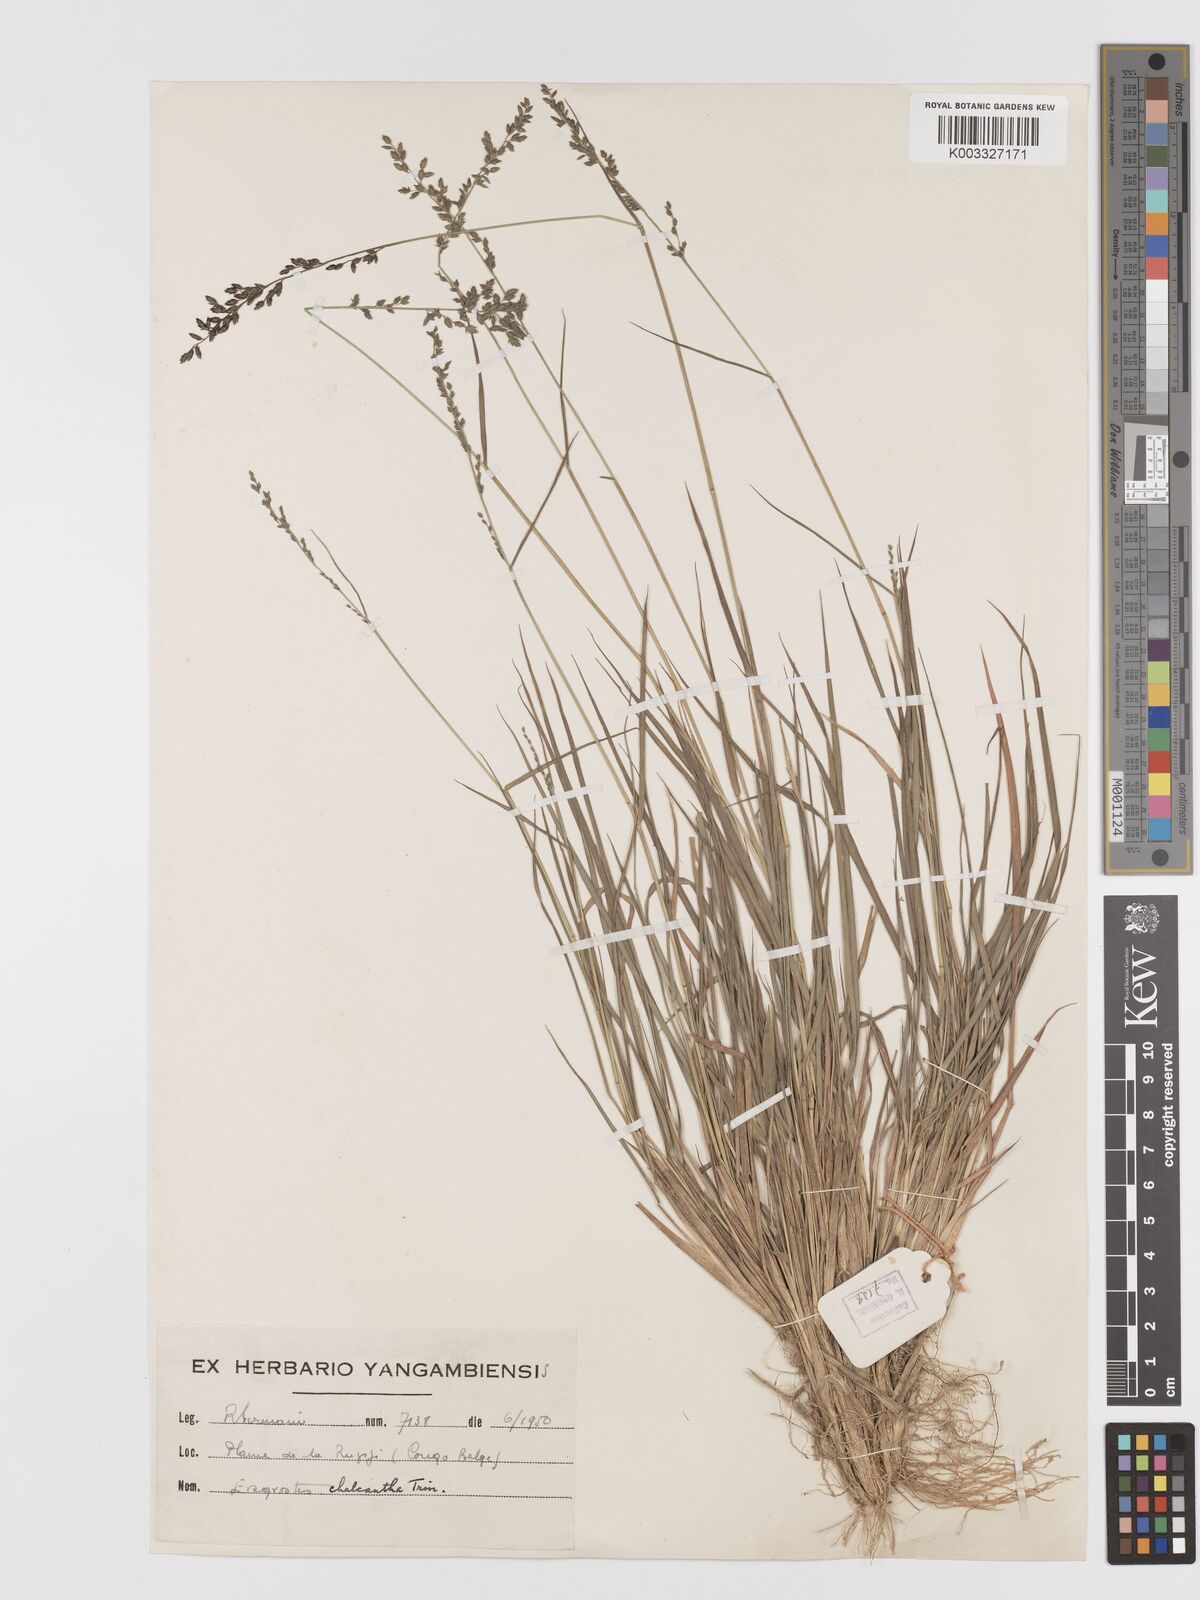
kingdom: Plantae
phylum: Tracheophyta
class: Liliopsida
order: Poales
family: Poaceae
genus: Eragrostis
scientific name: Eragrostis racemosa
